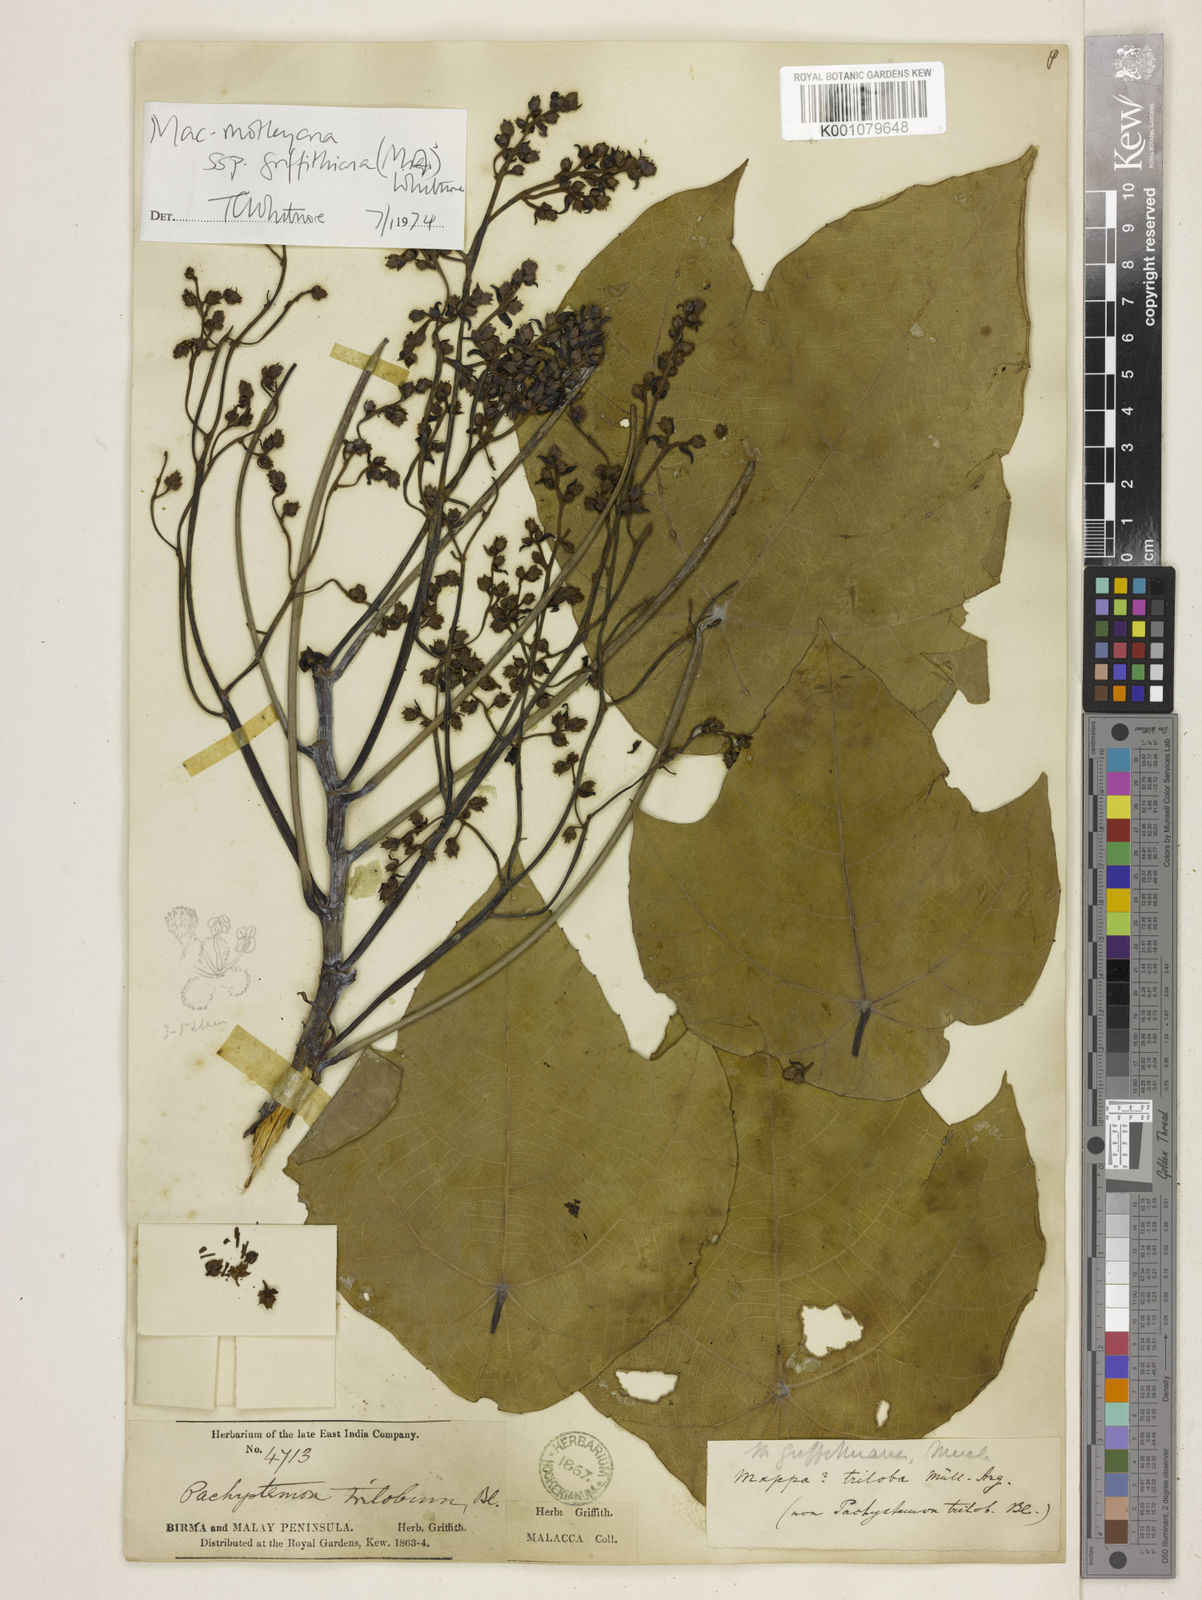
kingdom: Plantae
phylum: Tracheophyta
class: Magnoliopsida
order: Malpighiales
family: Euphorbiaceae
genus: Macaranga
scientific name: Macaranga
